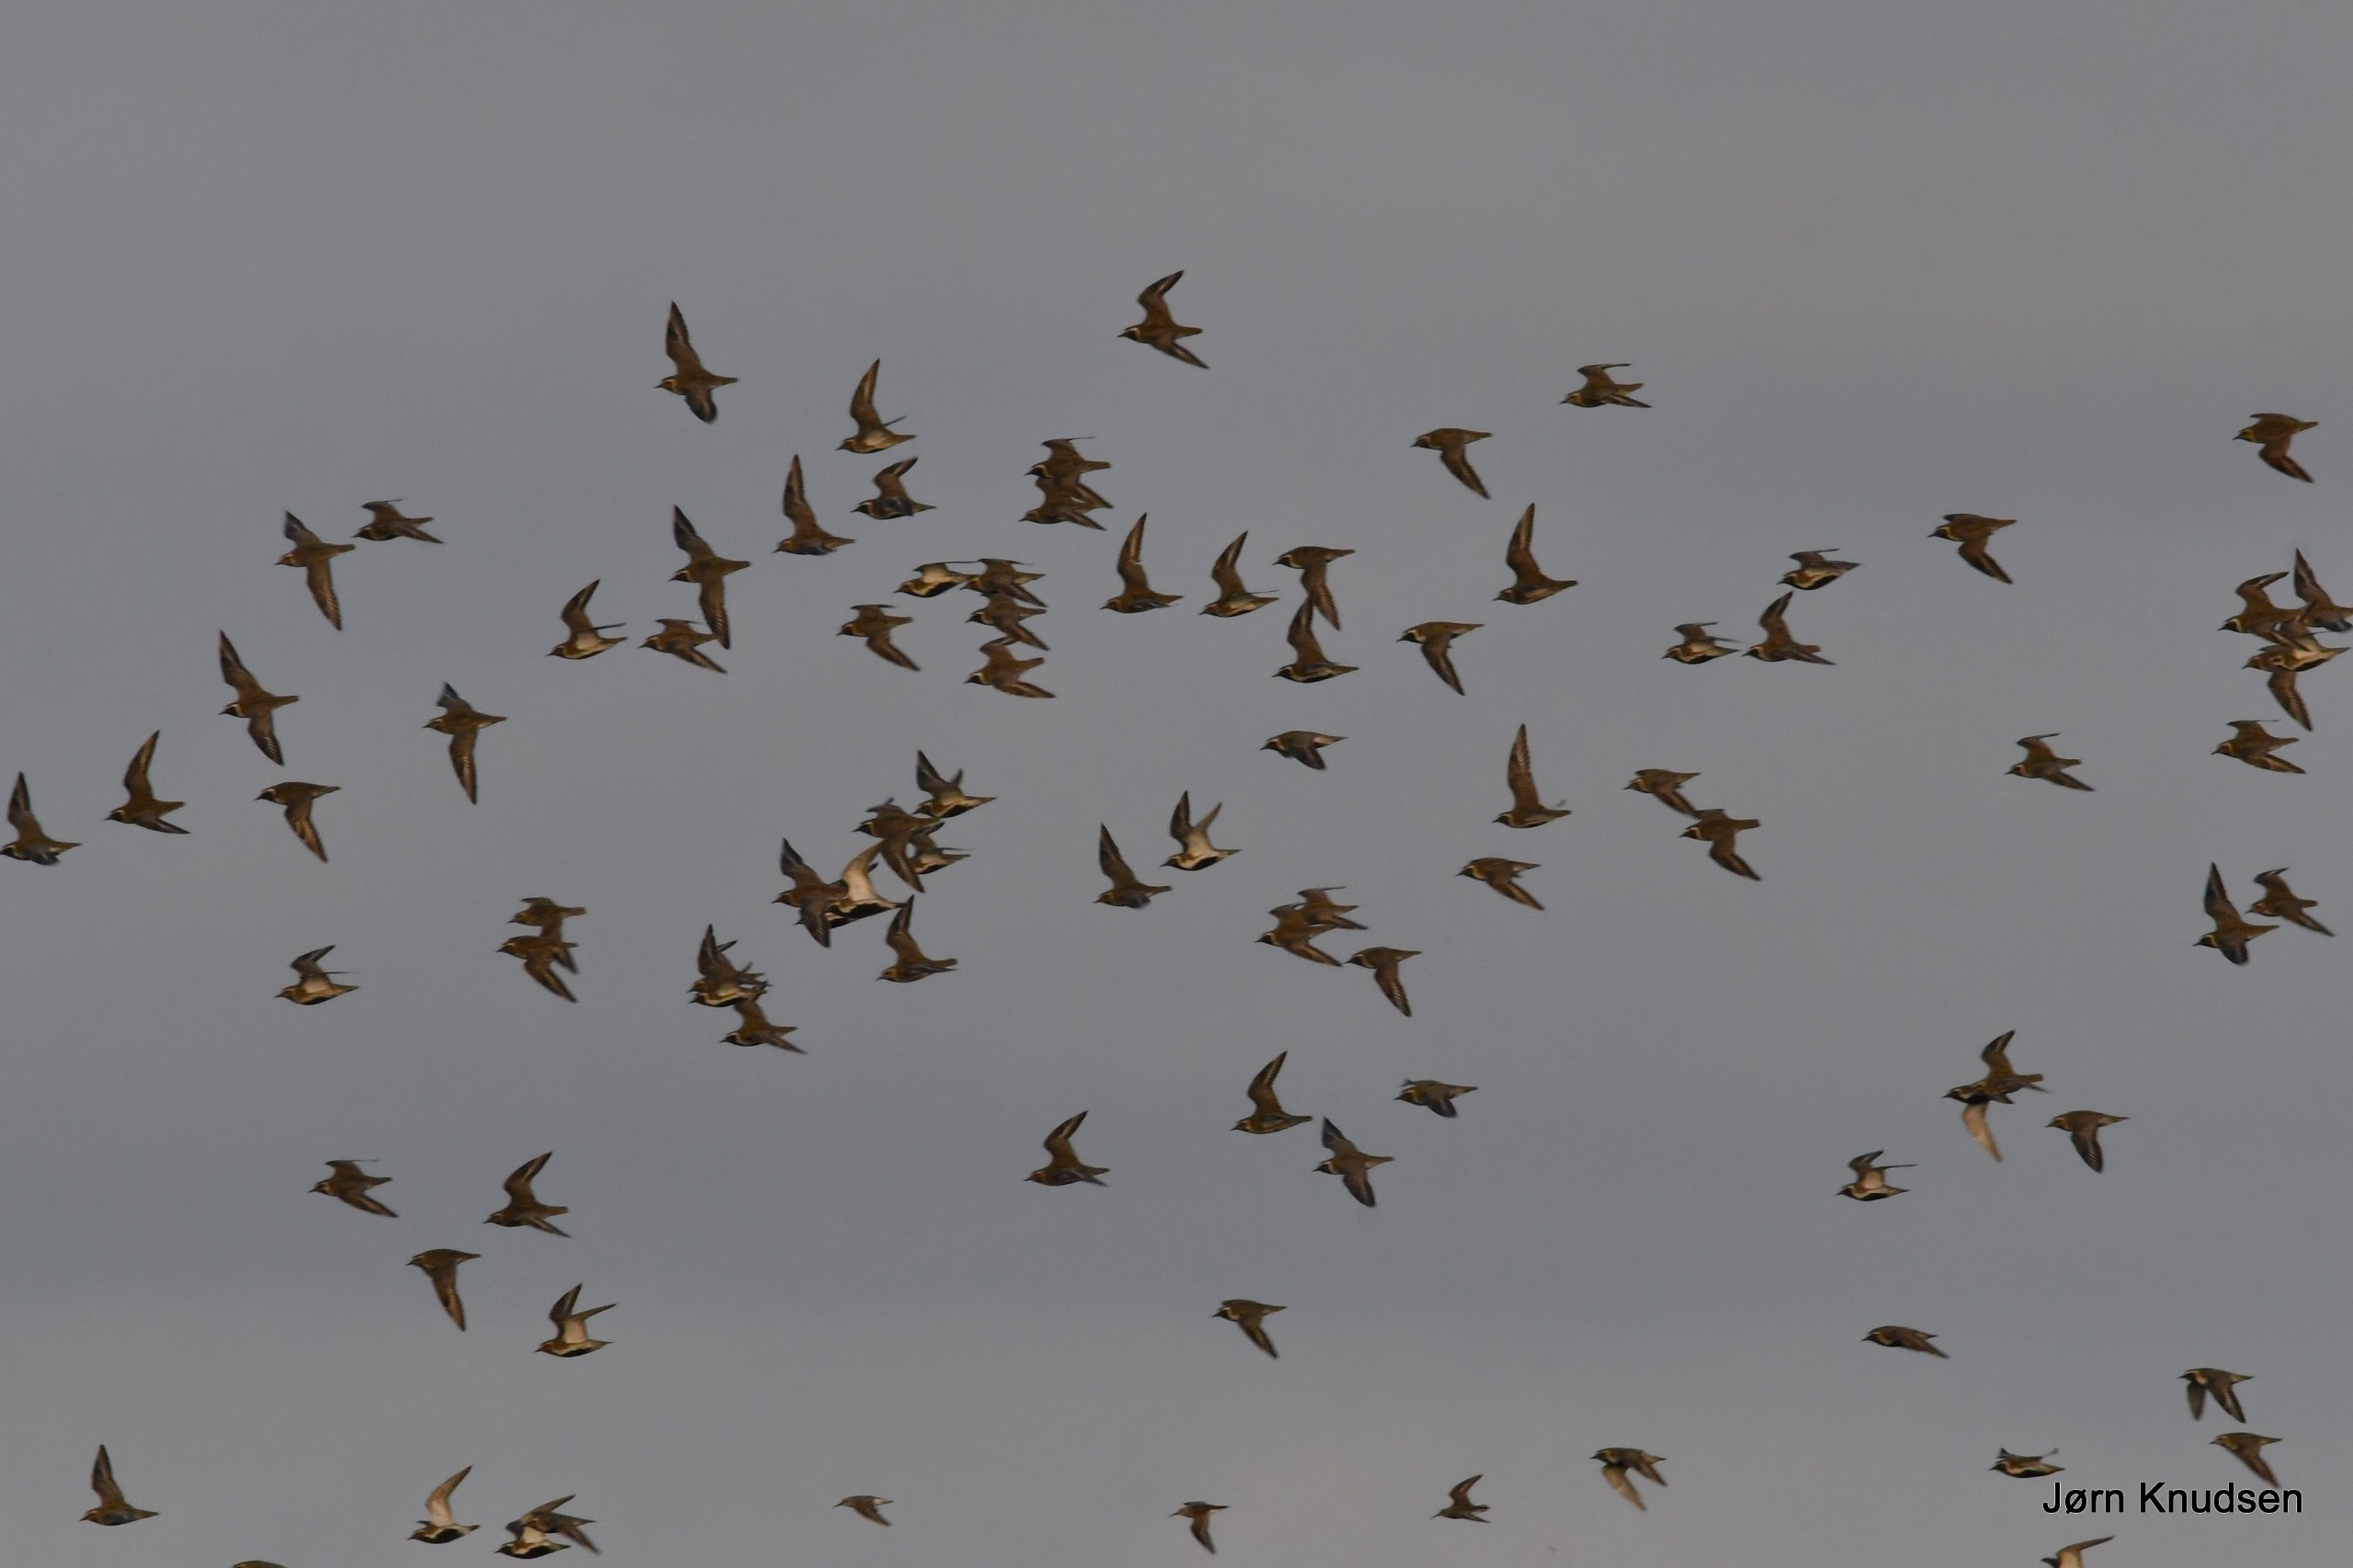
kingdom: Animalia
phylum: Chordata
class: Aves
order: Charadriiformes
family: Charadriidae
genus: Pluvialis
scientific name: Pluvialis apricaria
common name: Hjejle
